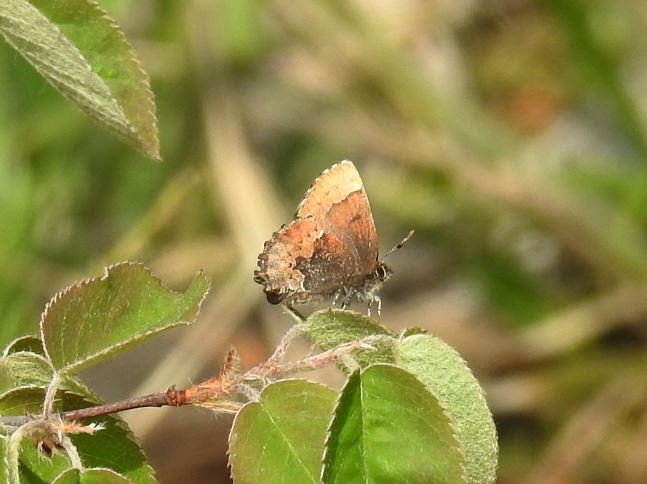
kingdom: Animalia
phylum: Arthropoda
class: Insecta
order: Lepidoptera
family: Lycaenidae
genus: Incisalia
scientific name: Incisalia henrici
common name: Henry's Elfin
